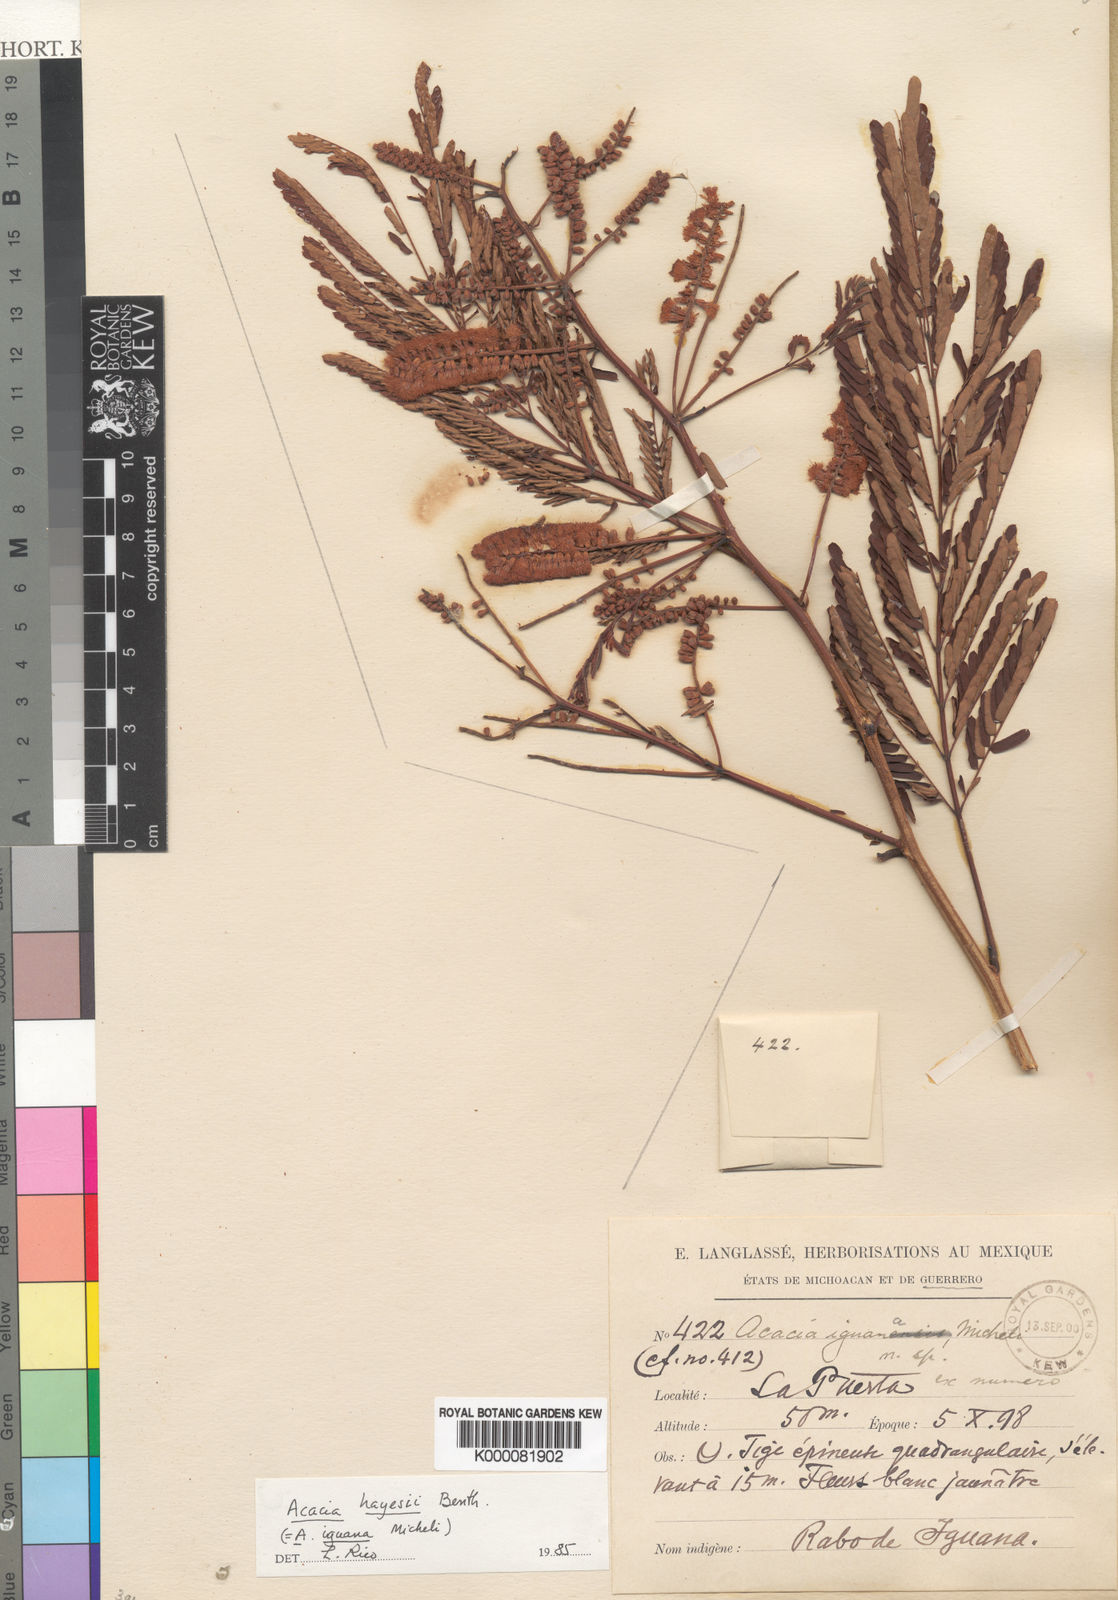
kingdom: Plantae
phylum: Tracheophyta
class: Magnoliopsida
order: Fabales
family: Fabaceae
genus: Senegalia
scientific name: Senegalia hayesii
